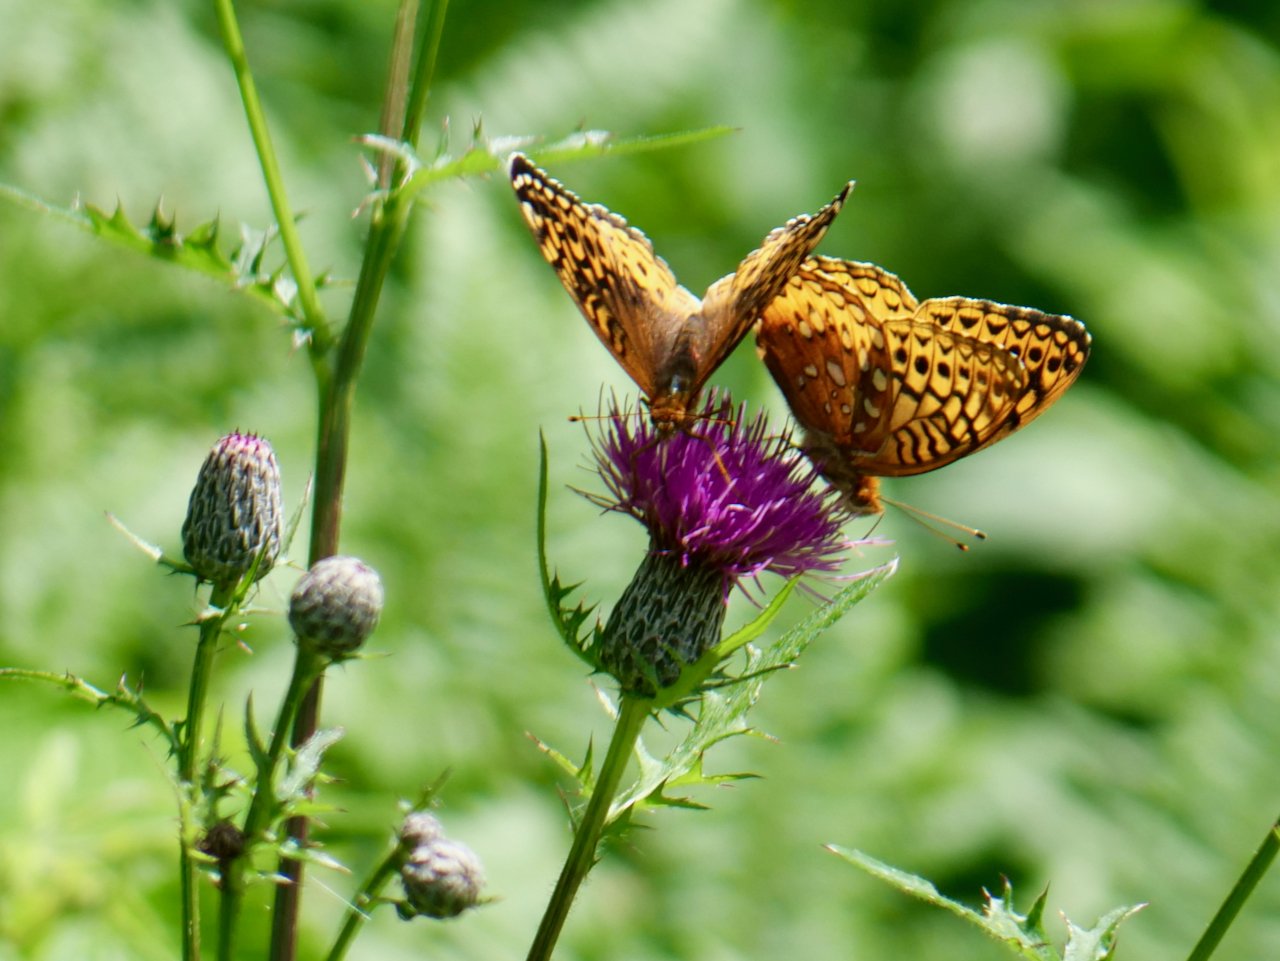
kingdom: Animalia
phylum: Arthropoda
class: Insecta
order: Lepidoptera
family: Nymphalidae
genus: Speyeria
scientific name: Speyeria cybele
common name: Great Spangled Fritillary
